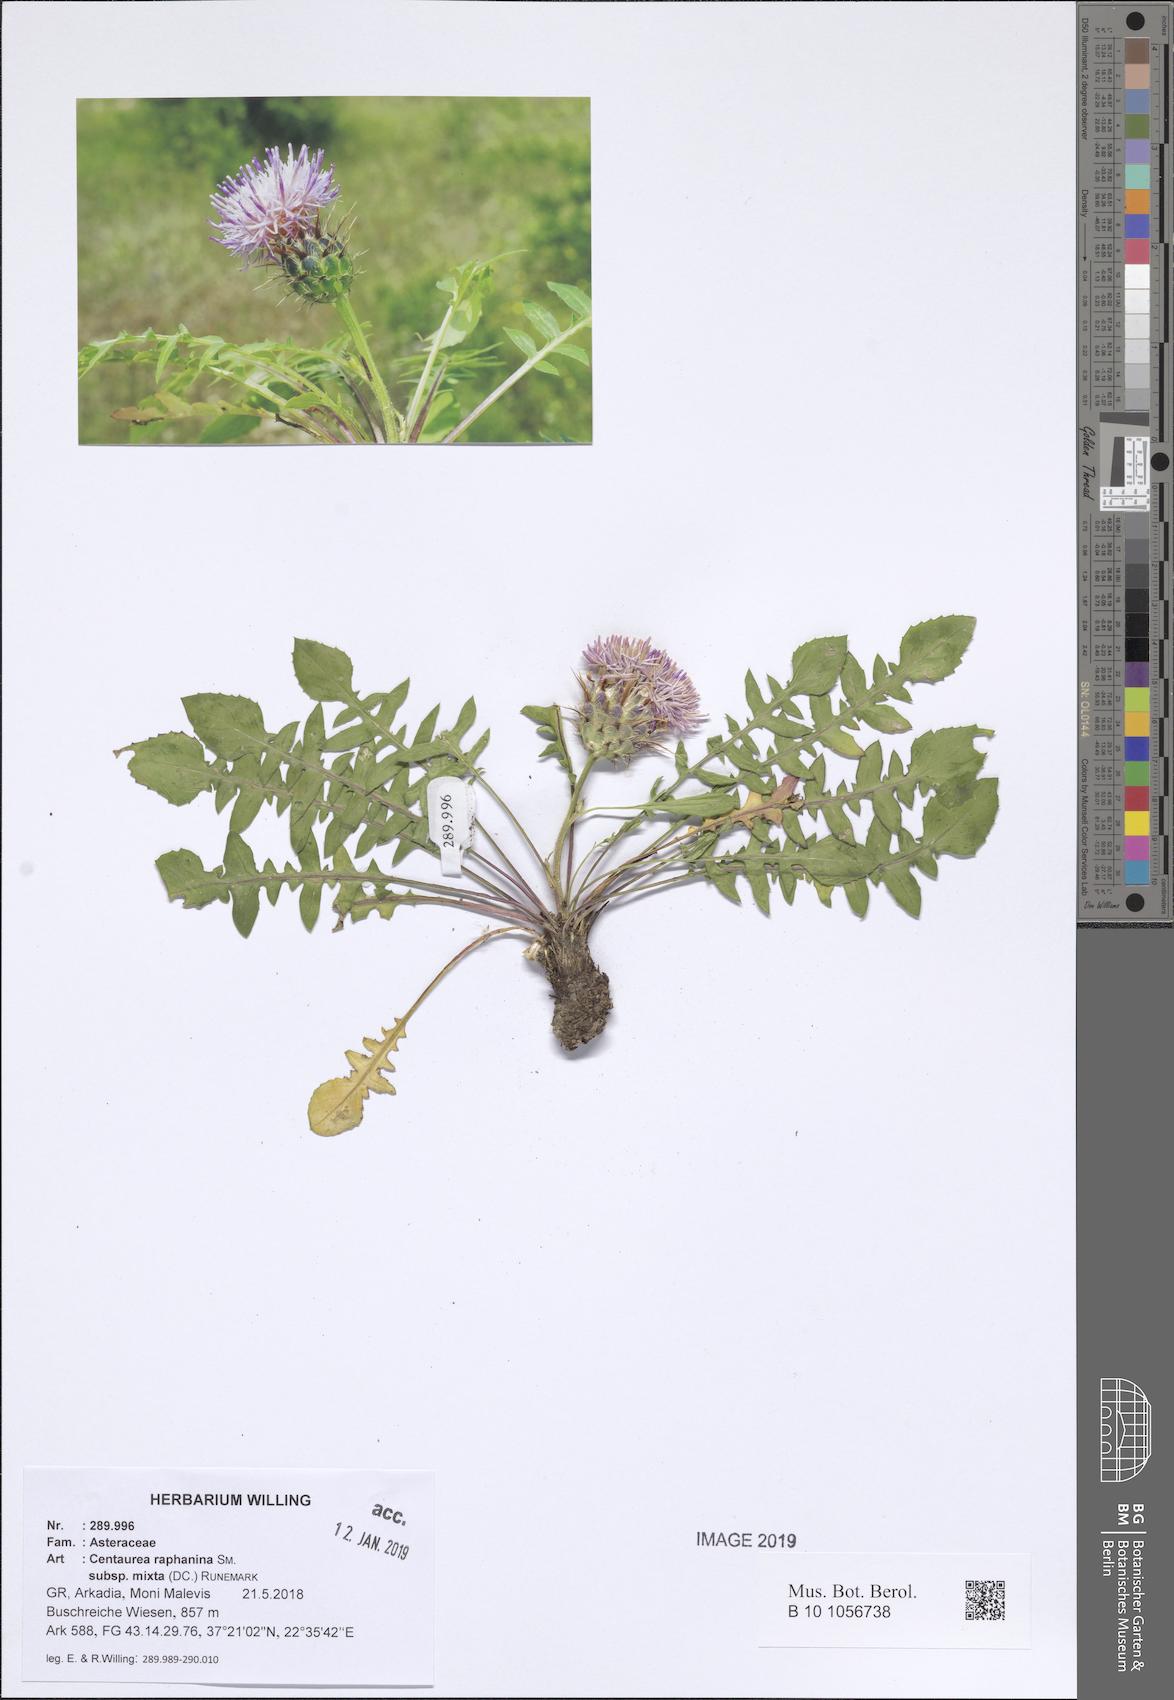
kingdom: Plantae
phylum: Tracheophyta
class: Magnoliopsida
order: Asterales
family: Asteraceae
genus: Centaurea
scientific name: Centaurea raphanina
